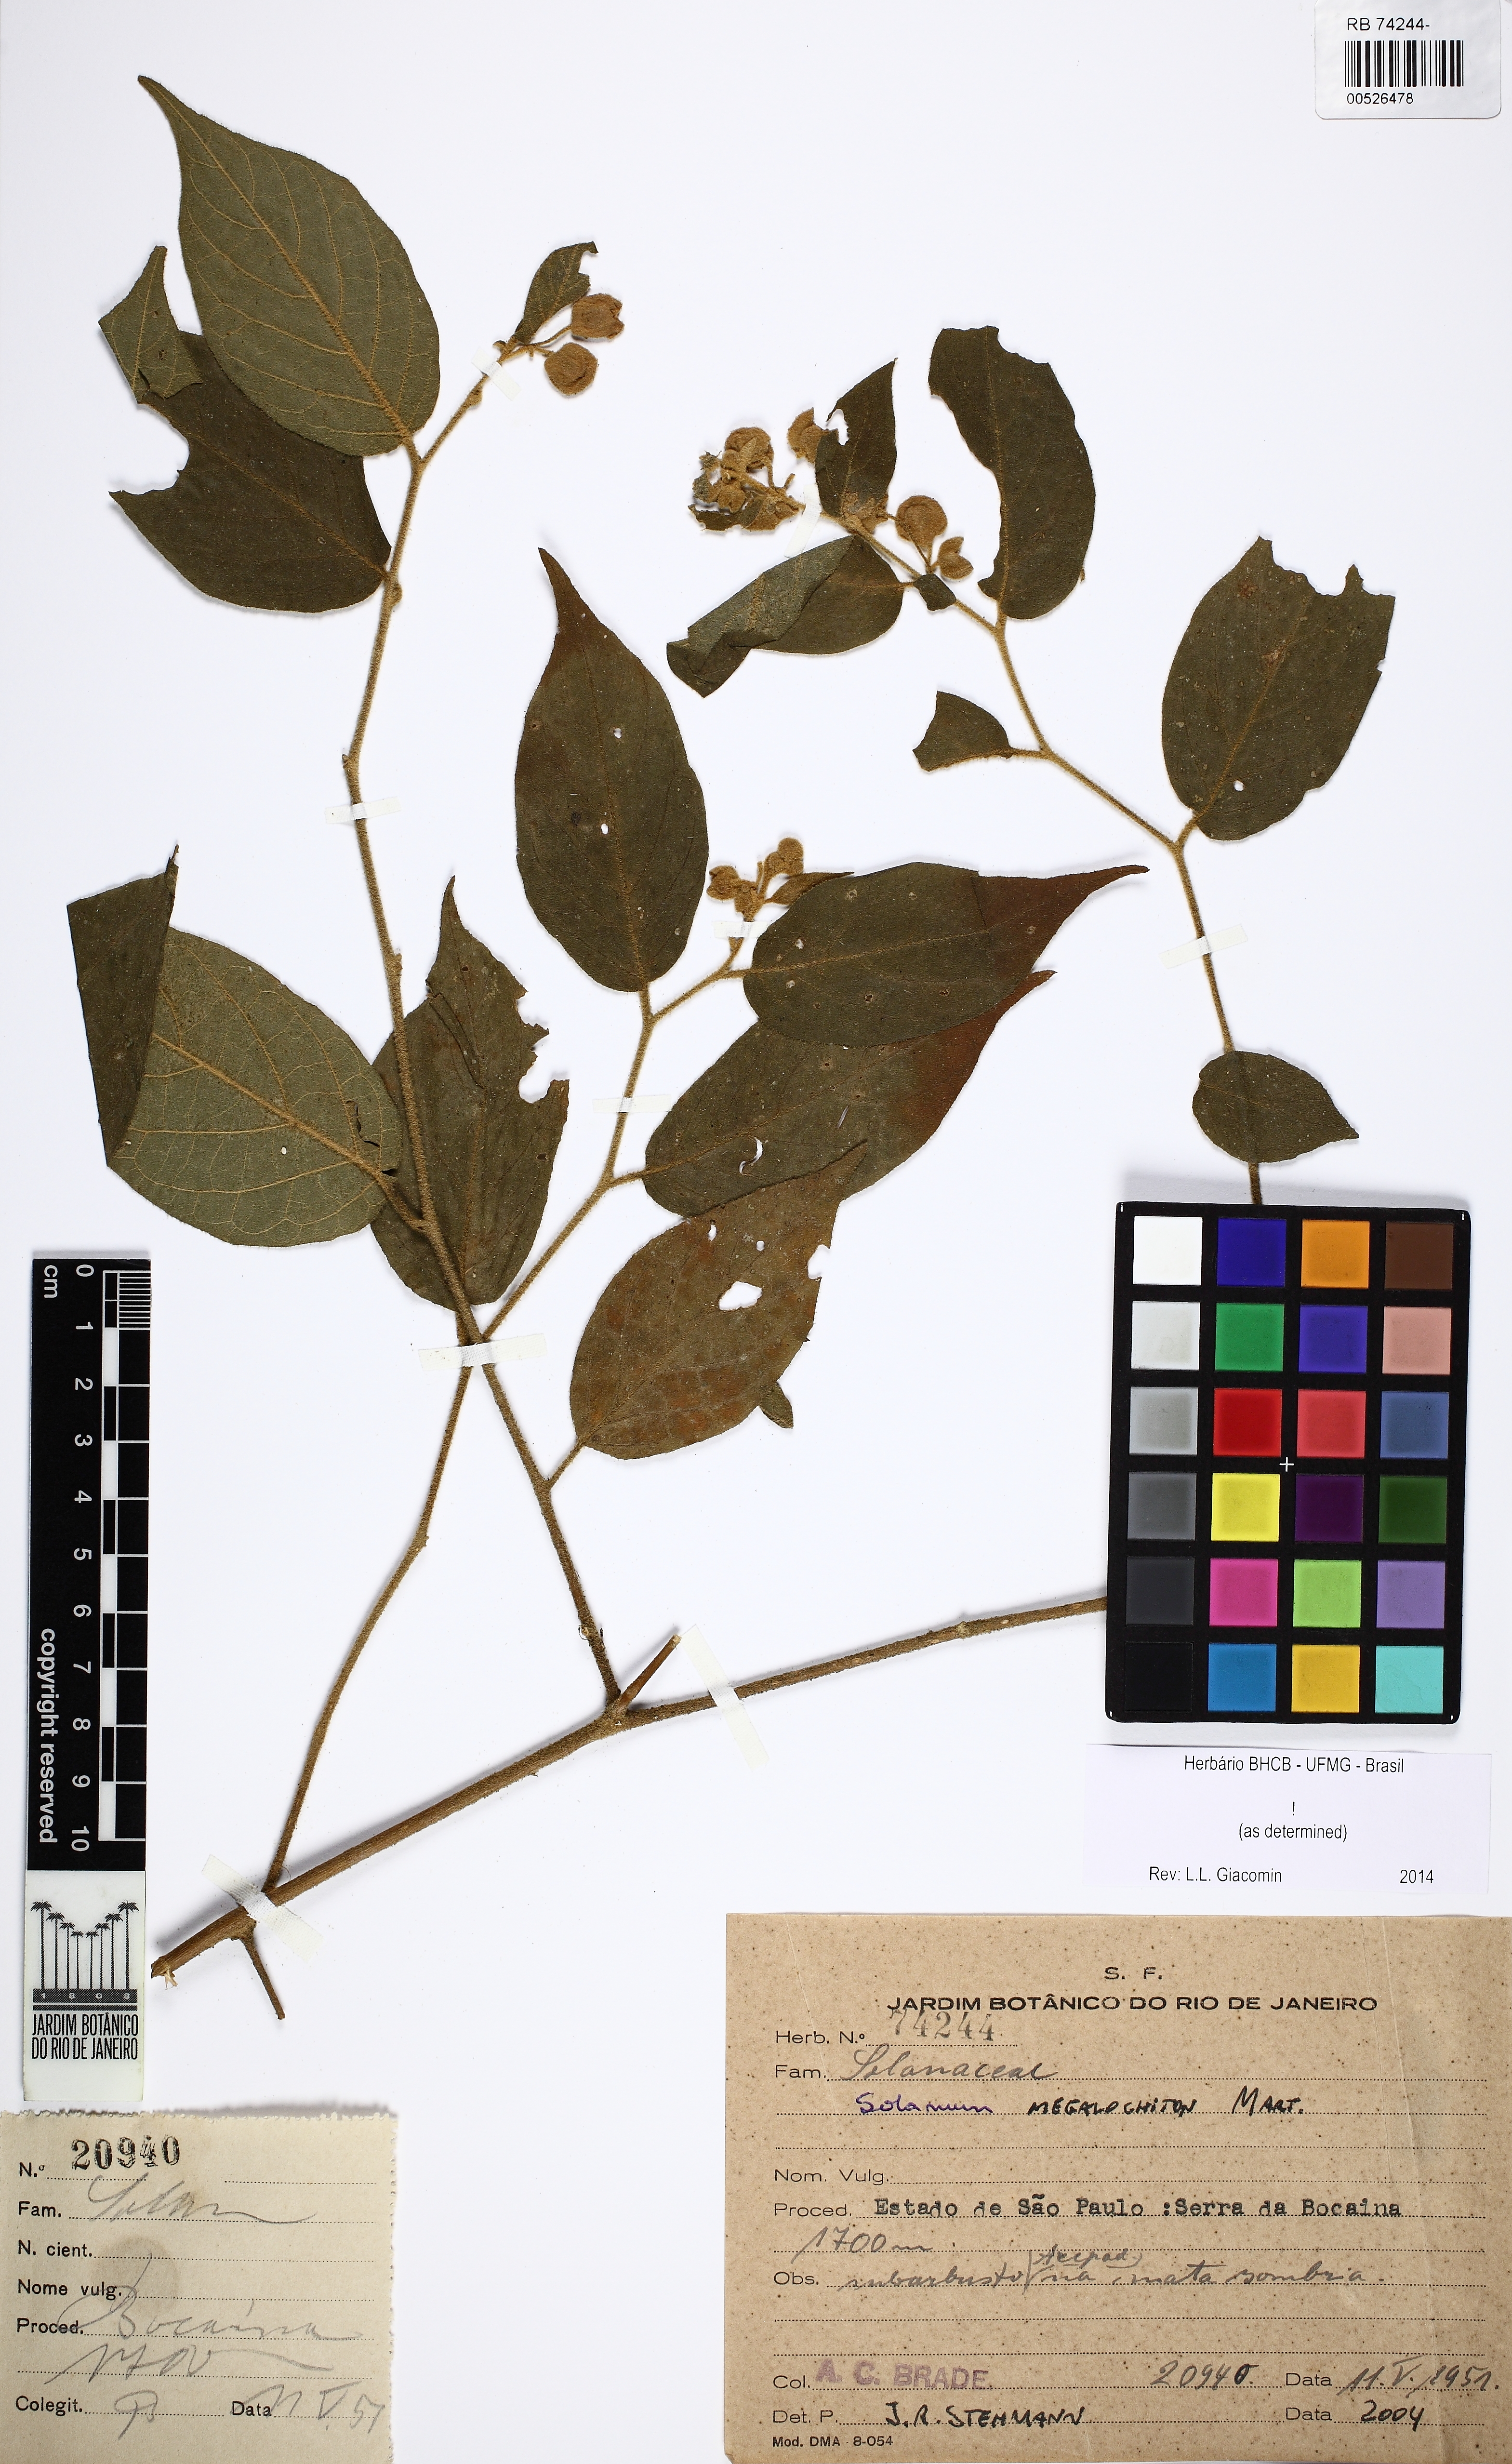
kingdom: Plantae
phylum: Tracheophyta
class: Magnoliopsida
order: Solanales
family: Solanaceae
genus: Solanum
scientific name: Solanum megalochiton
